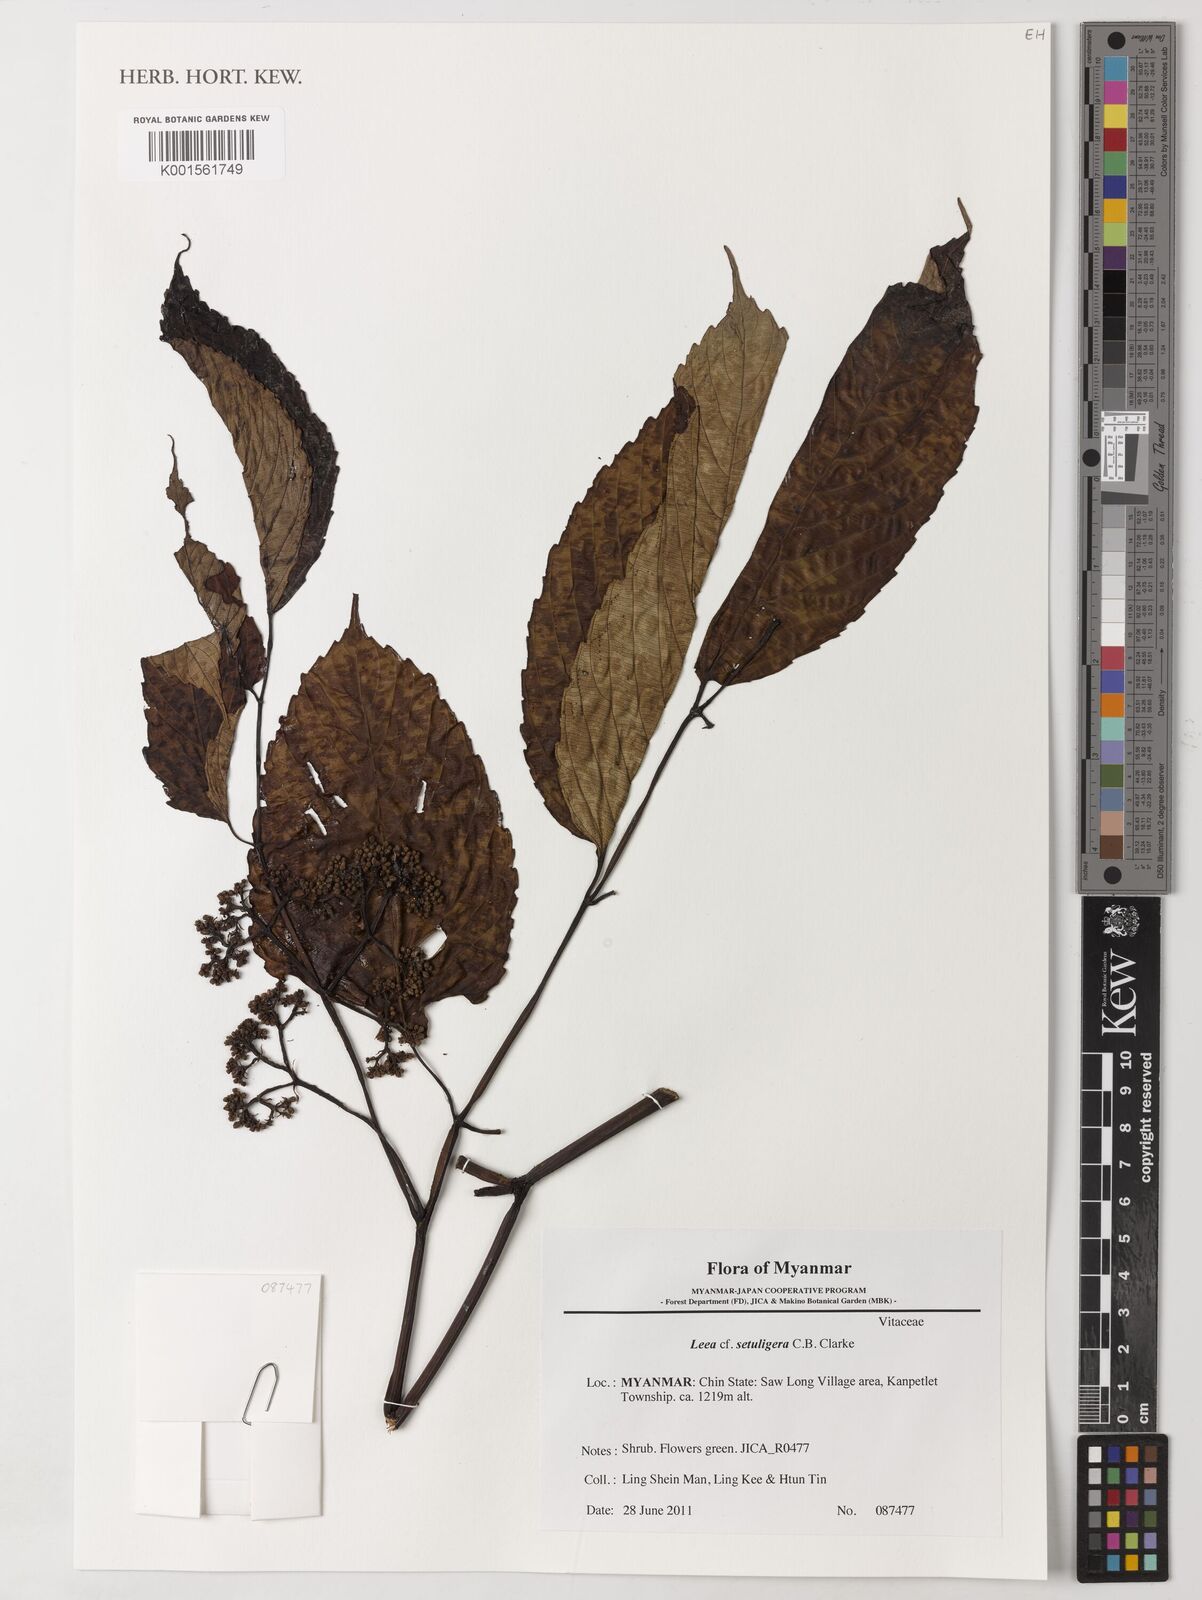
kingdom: Plantae
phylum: Tracheophyta
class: Magnoliopsida
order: Vitales
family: Vitaceae
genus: Leea
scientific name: Leea setuligera
